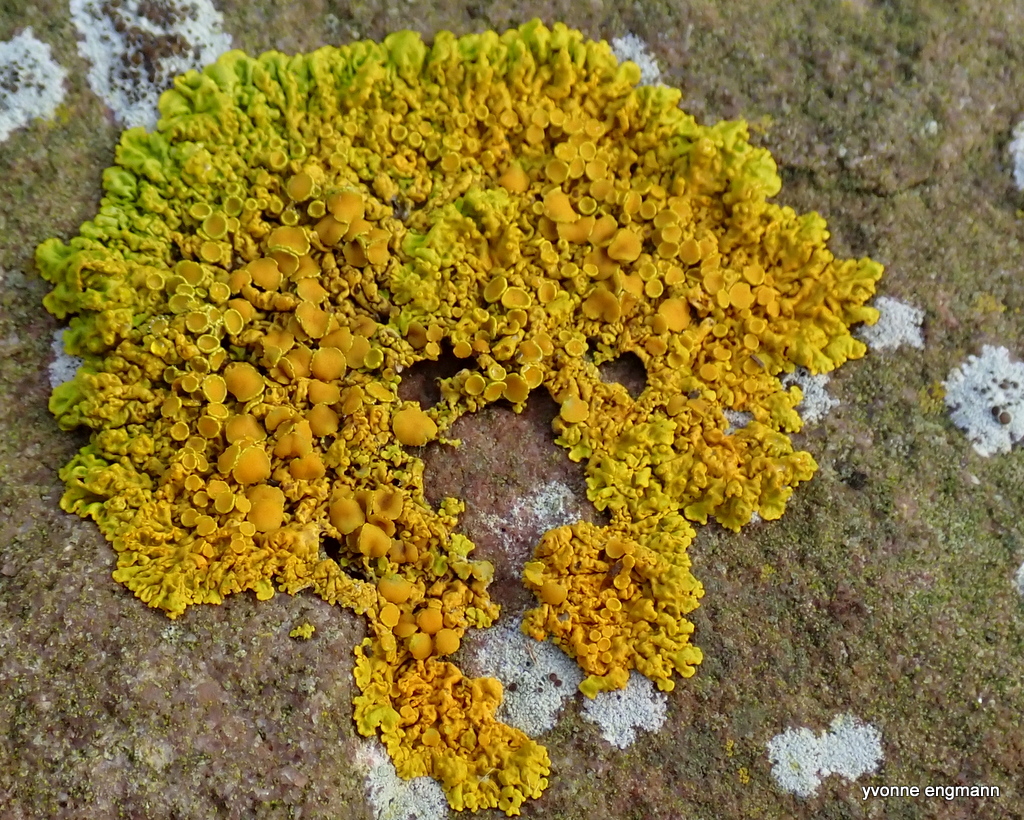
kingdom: Fungi
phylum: Ascomycota
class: Lecanoromycetes
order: Teloschistales
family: Teloschistaceae
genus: Xanthoria
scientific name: Xanthoria parietina
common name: almindelig væggelav
